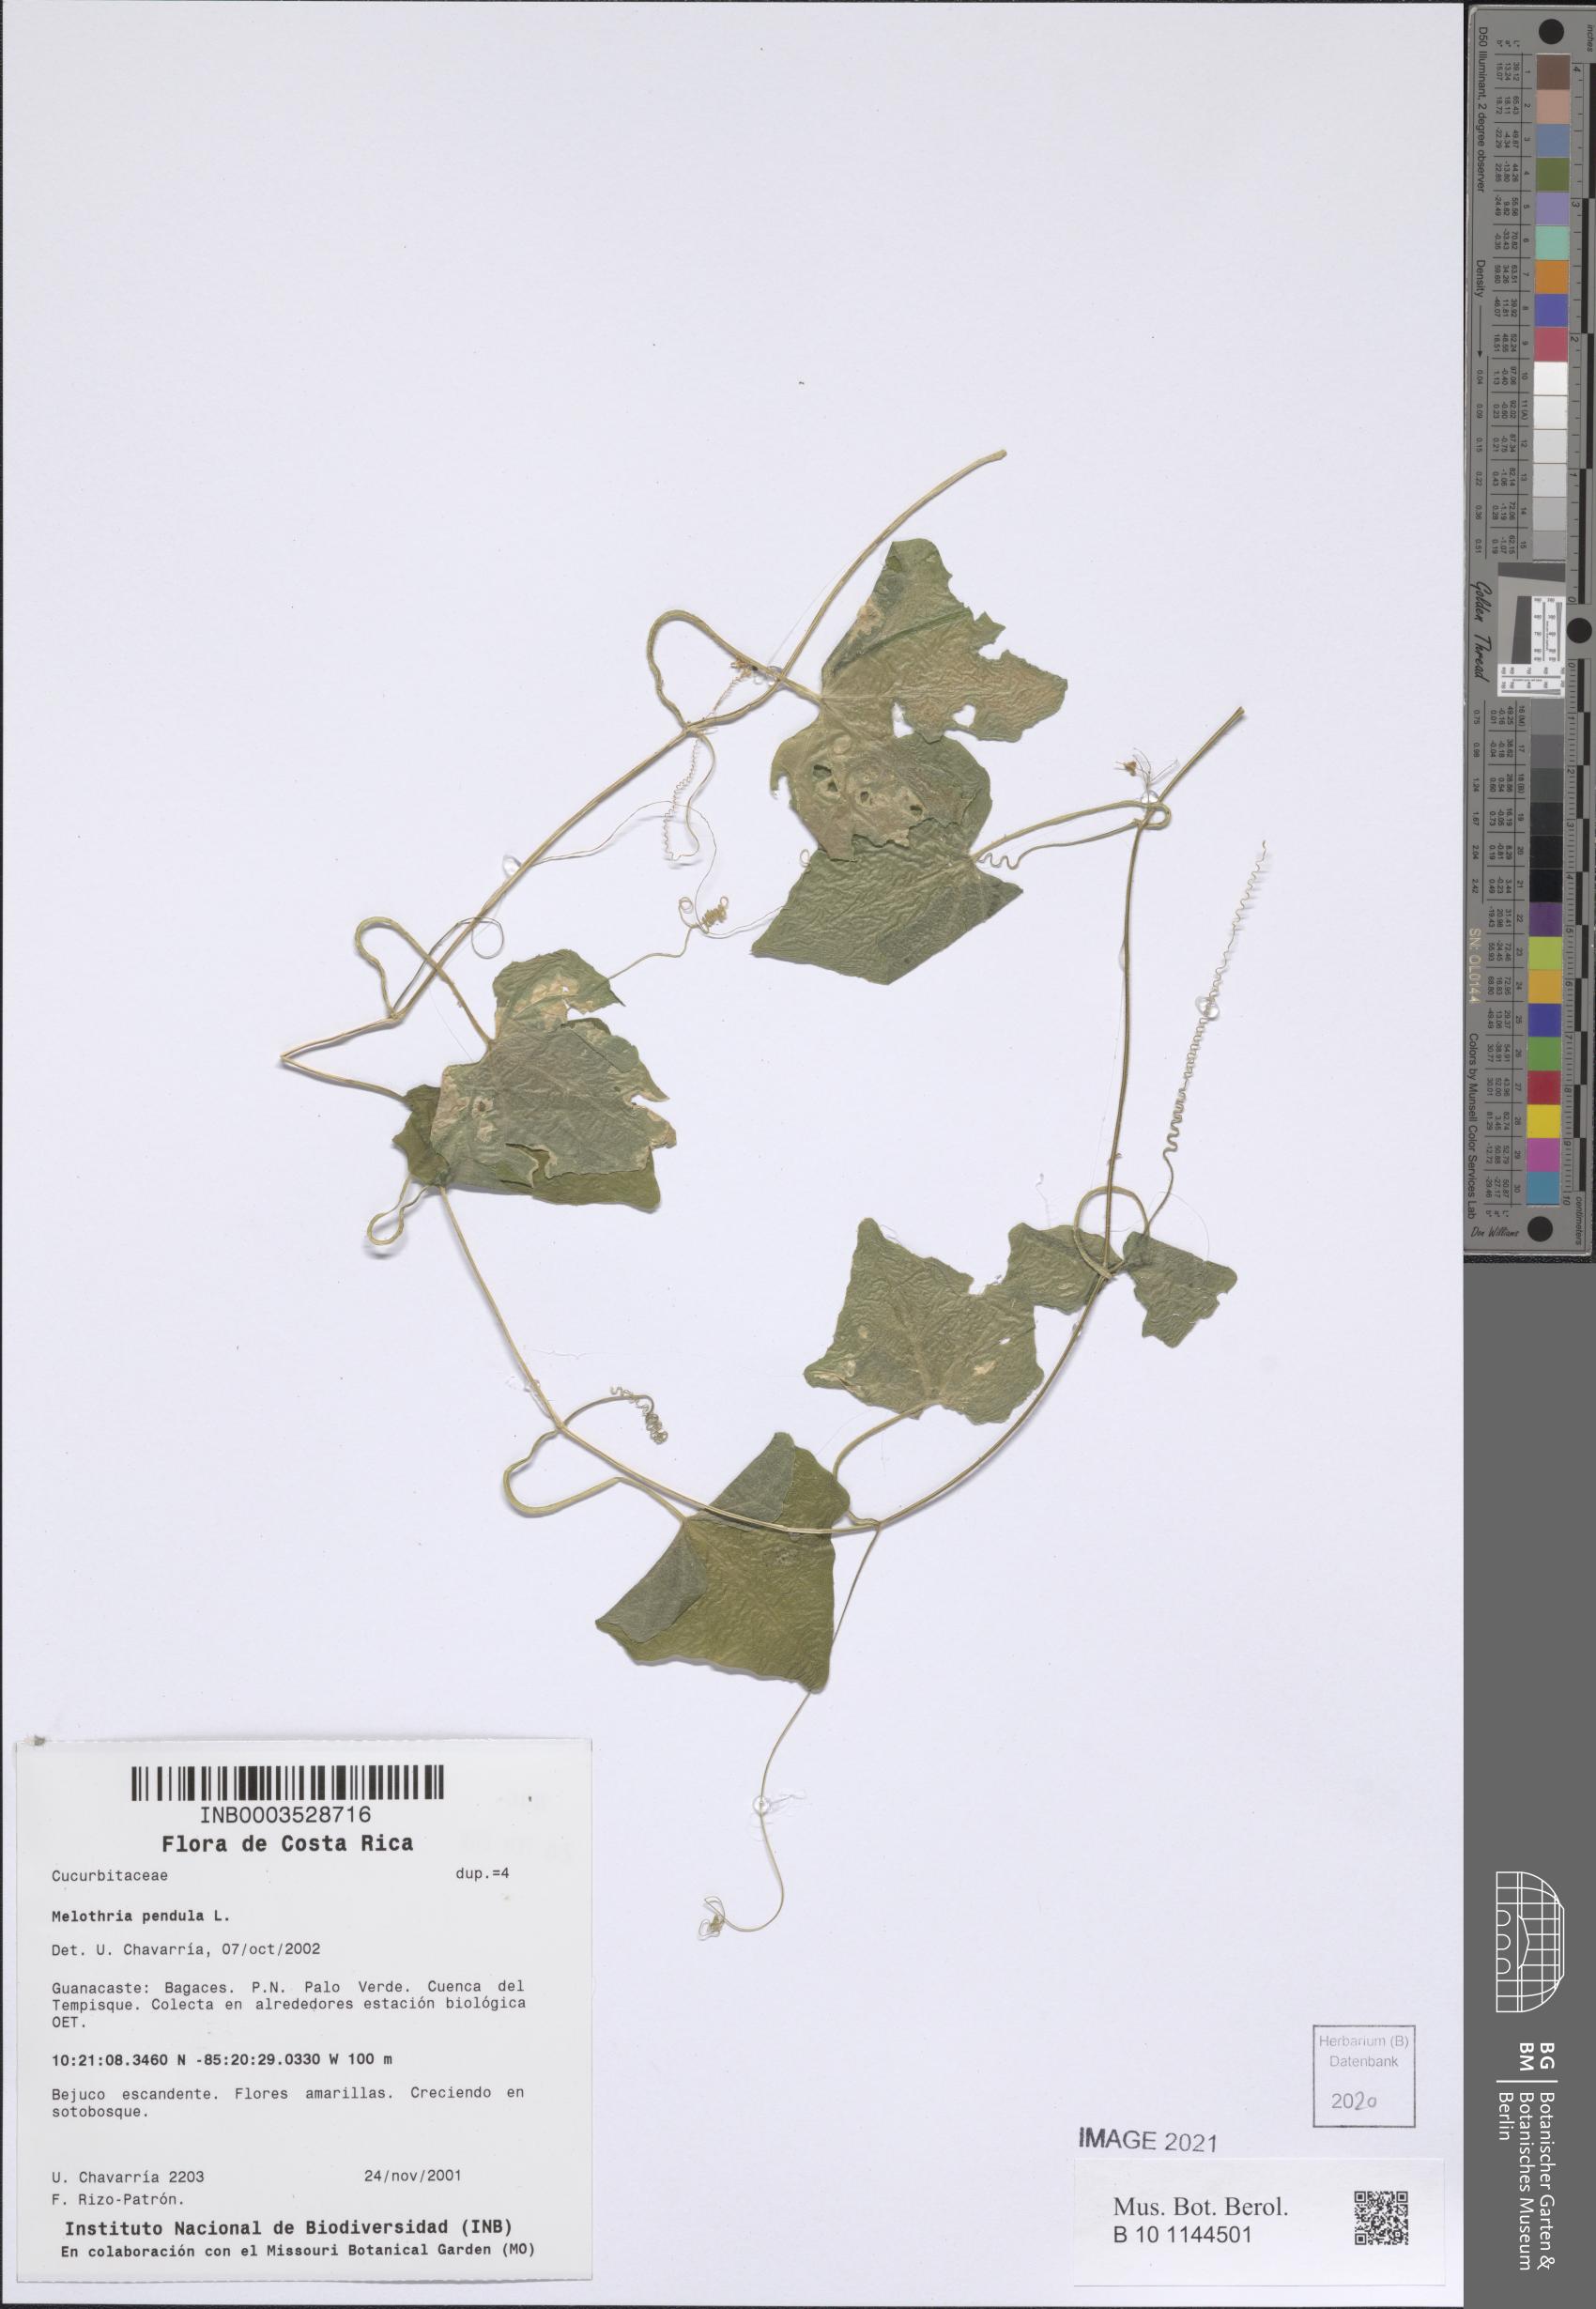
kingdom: Plantae
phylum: Tracheophyta
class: Magnoliopsida
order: Cucurbitales
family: Cucurbitaceae
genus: Melothria
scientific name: Melothria pendula
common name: Creeping-cucumber
